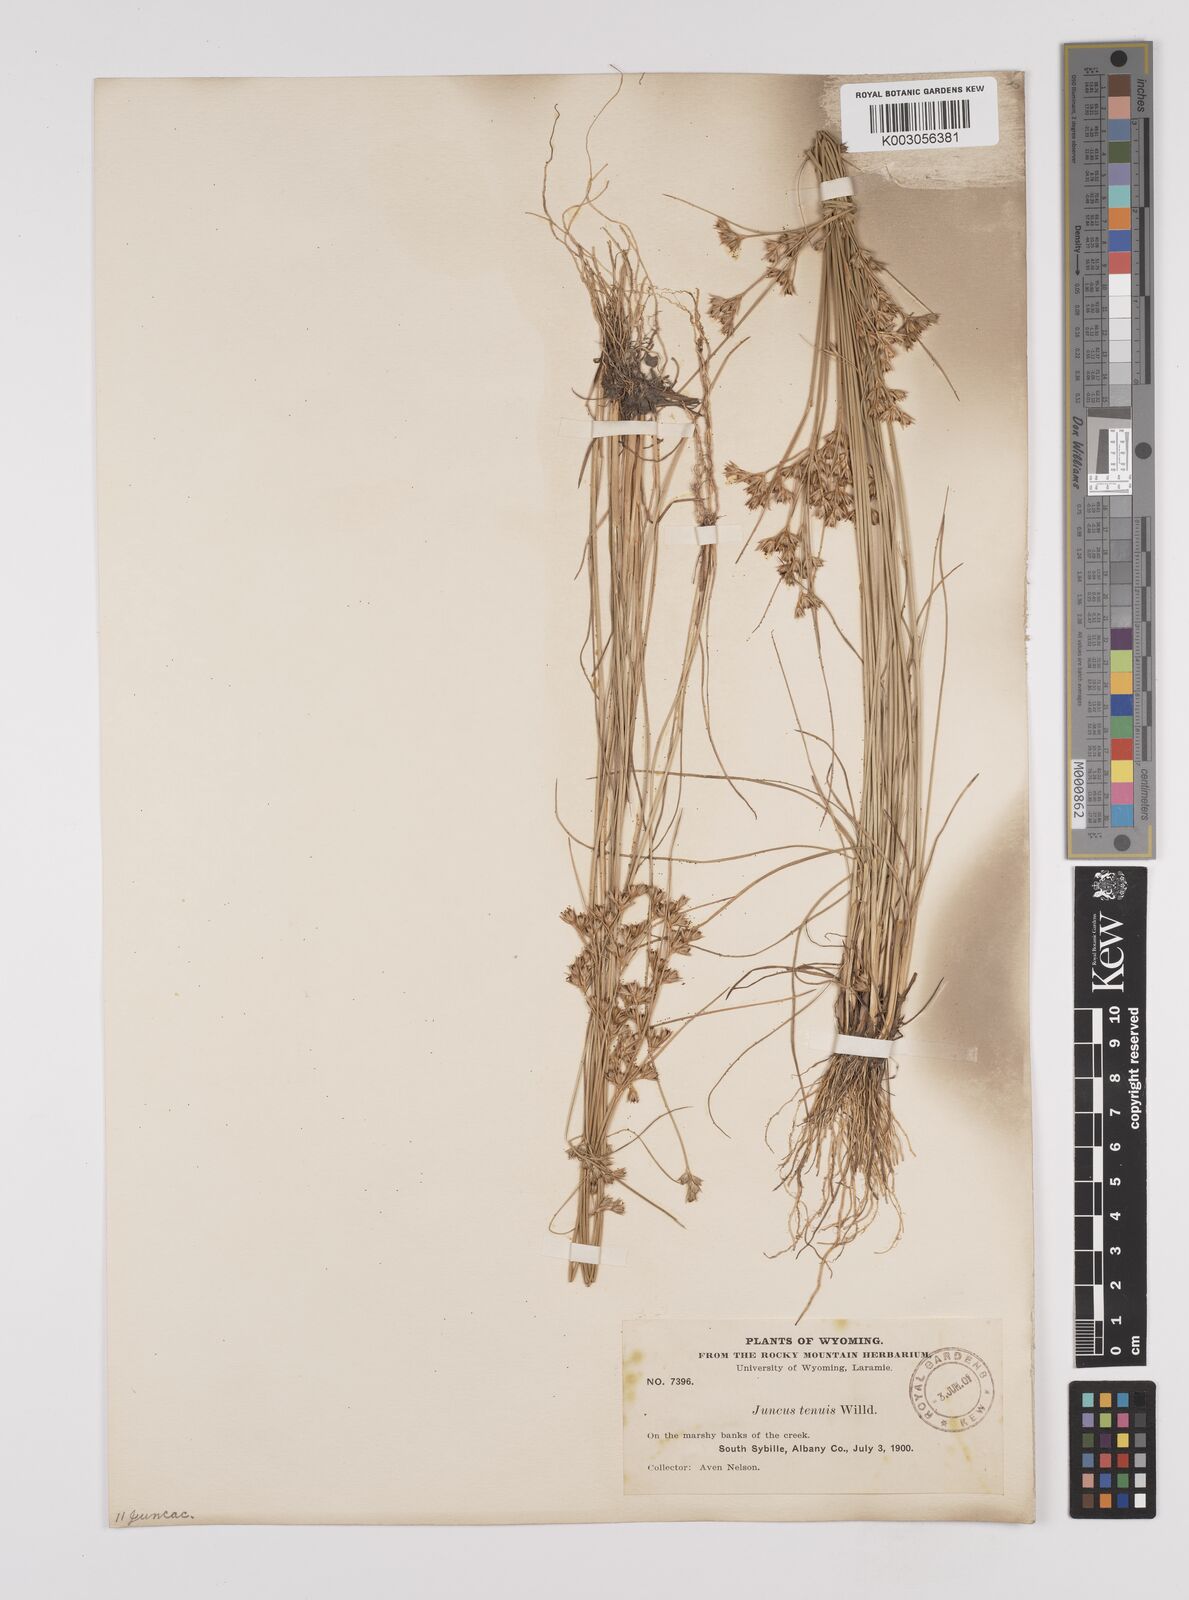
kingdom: Plantae
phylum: Tracheophyta
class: Liliopsida
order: Poales
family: Juncaceae
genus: Juncus
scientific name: Juncus tenuis
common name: Slender rush
